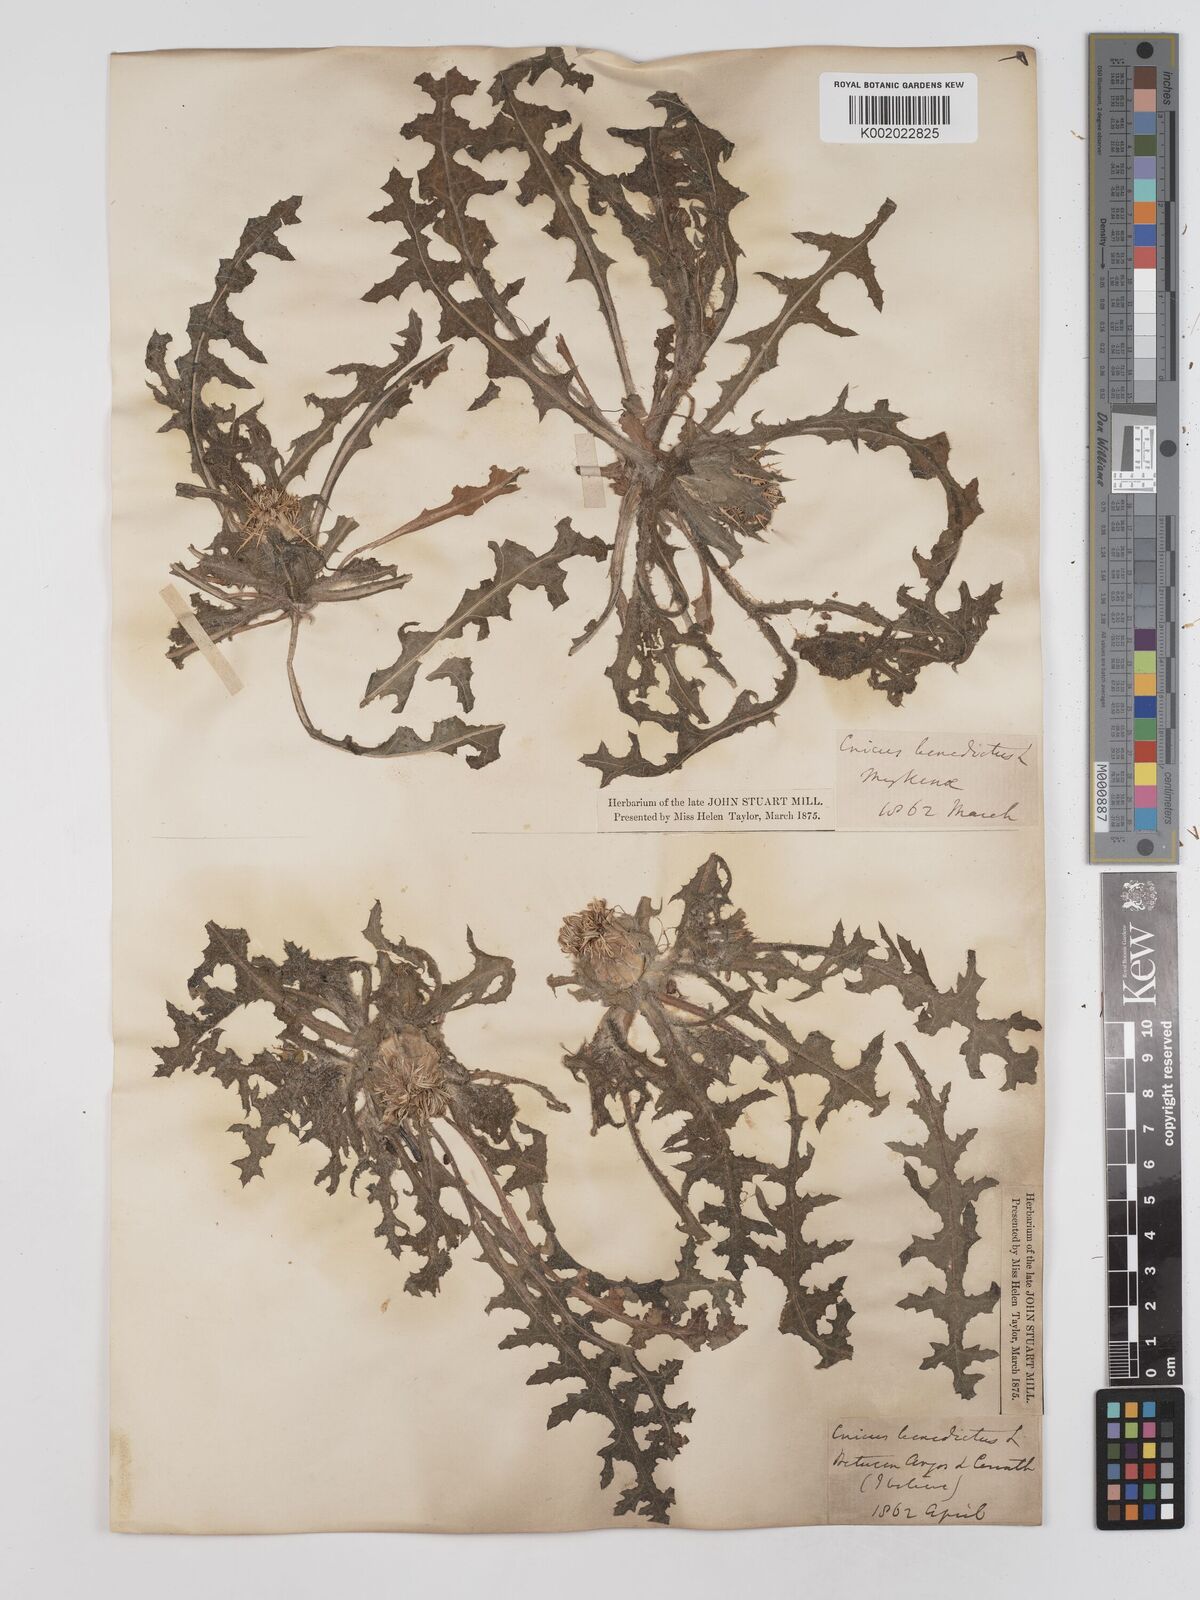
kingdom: Plantae
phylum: Tracheophyta
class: Magnoliopsida
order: Asterales
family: Asteraceae
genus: Centaurea
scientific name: Centaurea benedicta
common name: Blessed thistle
